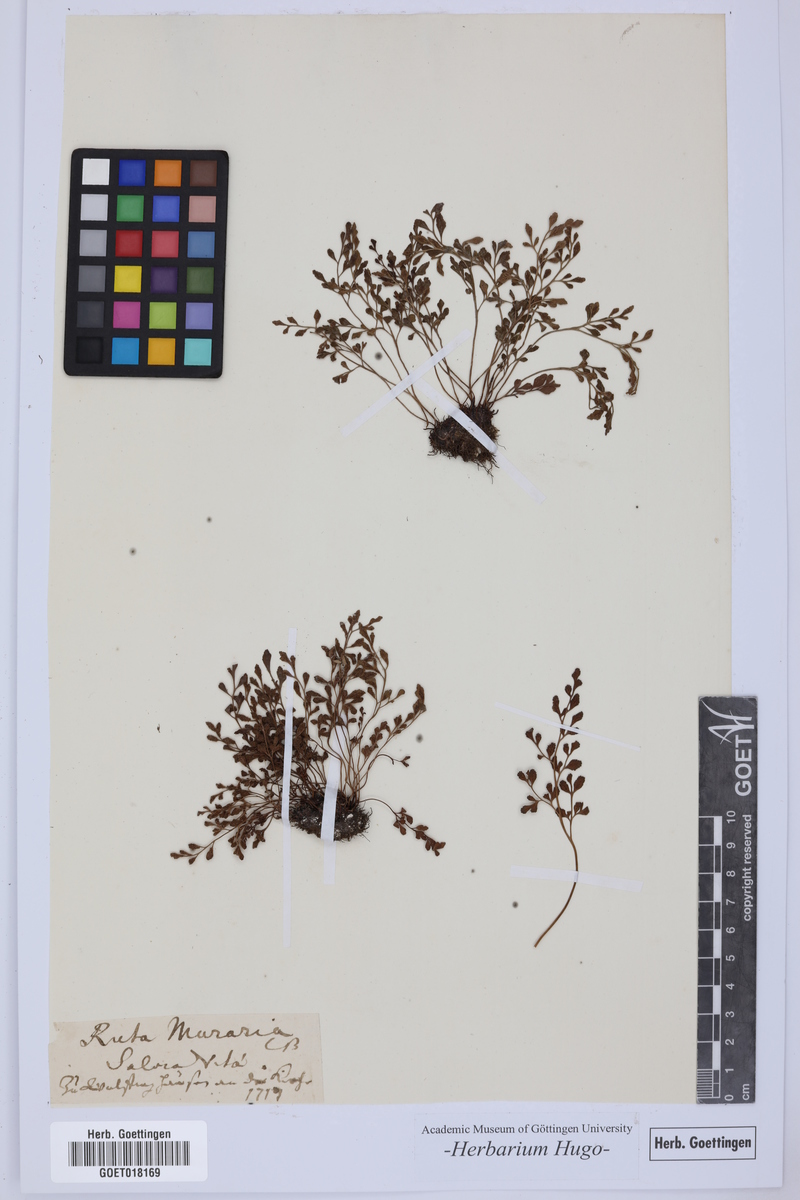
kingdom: Plantae
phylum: Tracheophyta
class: Polypodiopsida
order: Polypodiales
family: Aspleniaceae
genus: Asplenium
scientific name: Asplenium ruta-muraria
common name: Wall-rue
